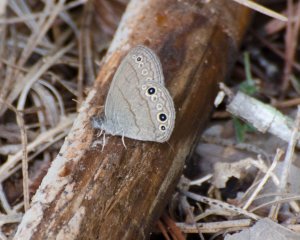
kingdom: Animalia
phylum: Arthropoda
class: Insecta
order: Lepidoptera
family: Nymphalidae
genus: Hermeuptychia
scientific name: Hermeuptychia hermes
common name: Carolina Satyr
